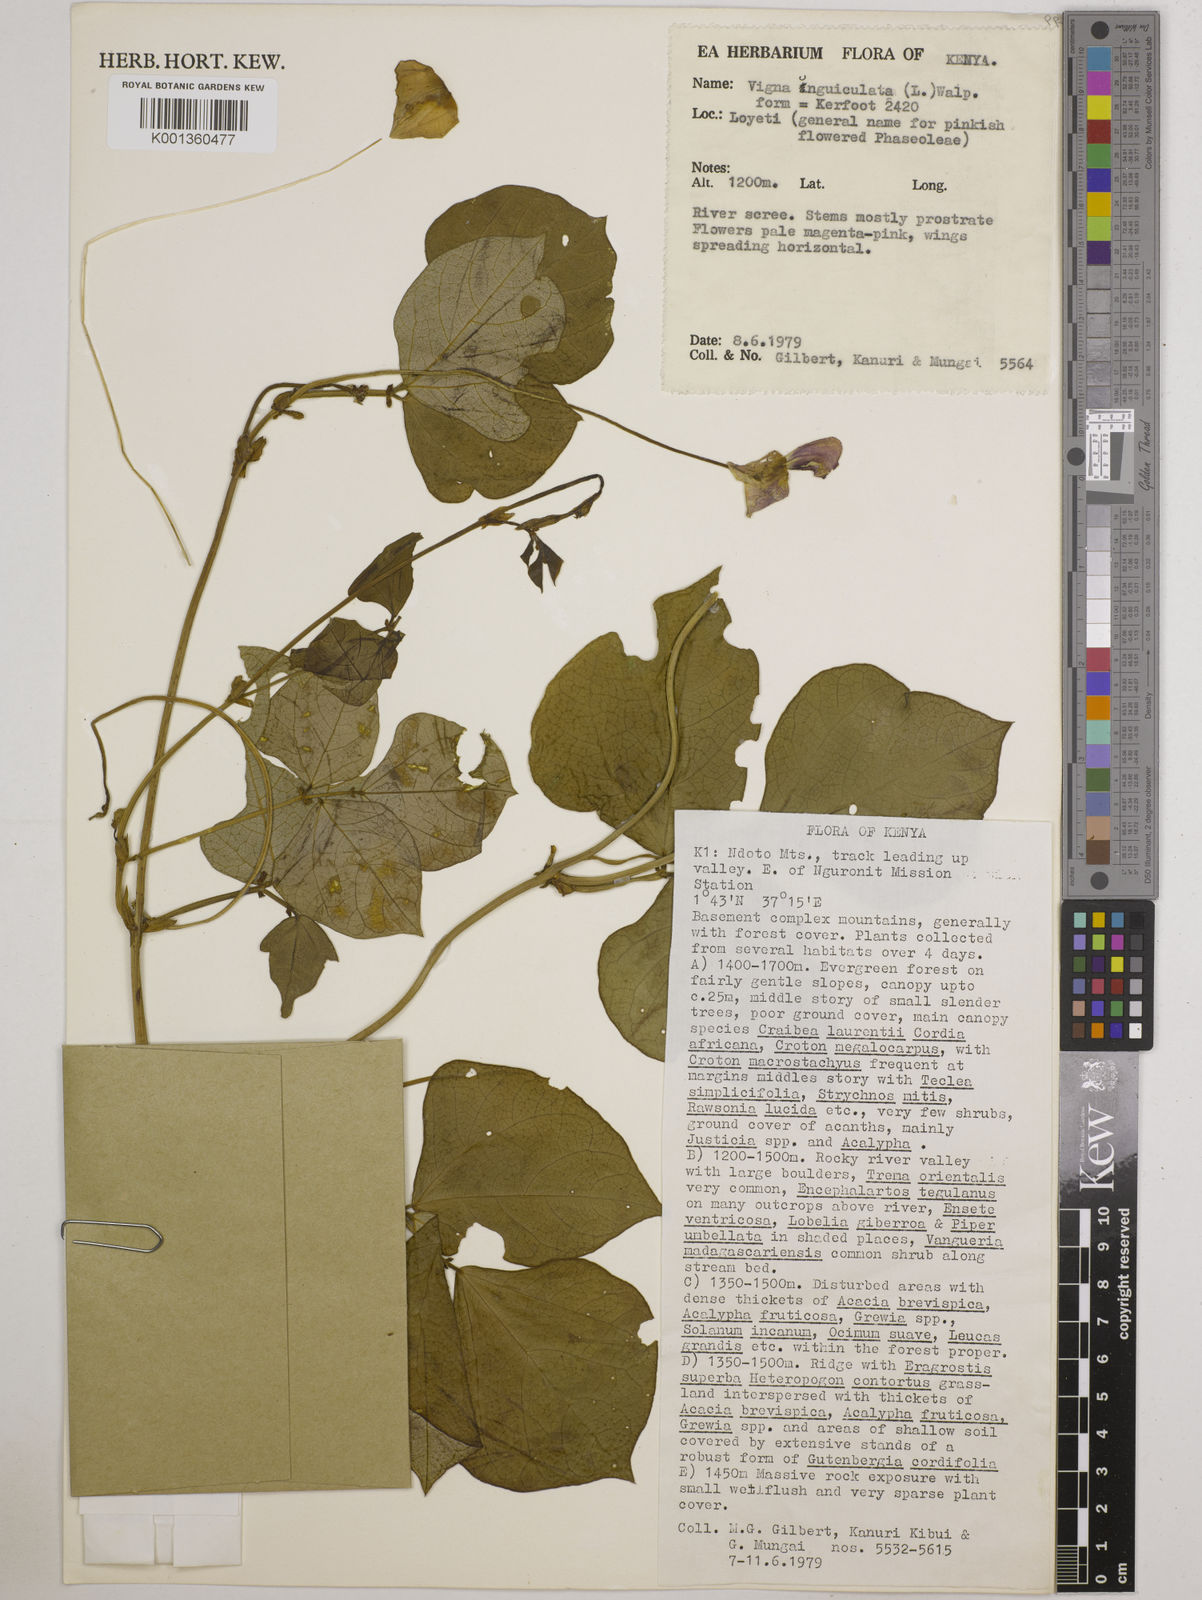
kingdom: Plantae
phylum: Tracheophyta
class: Magnoliopsida
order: Fabales
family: Fabaceae
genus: Vigna
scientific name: Vigna unguiculata
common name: Cowpea
